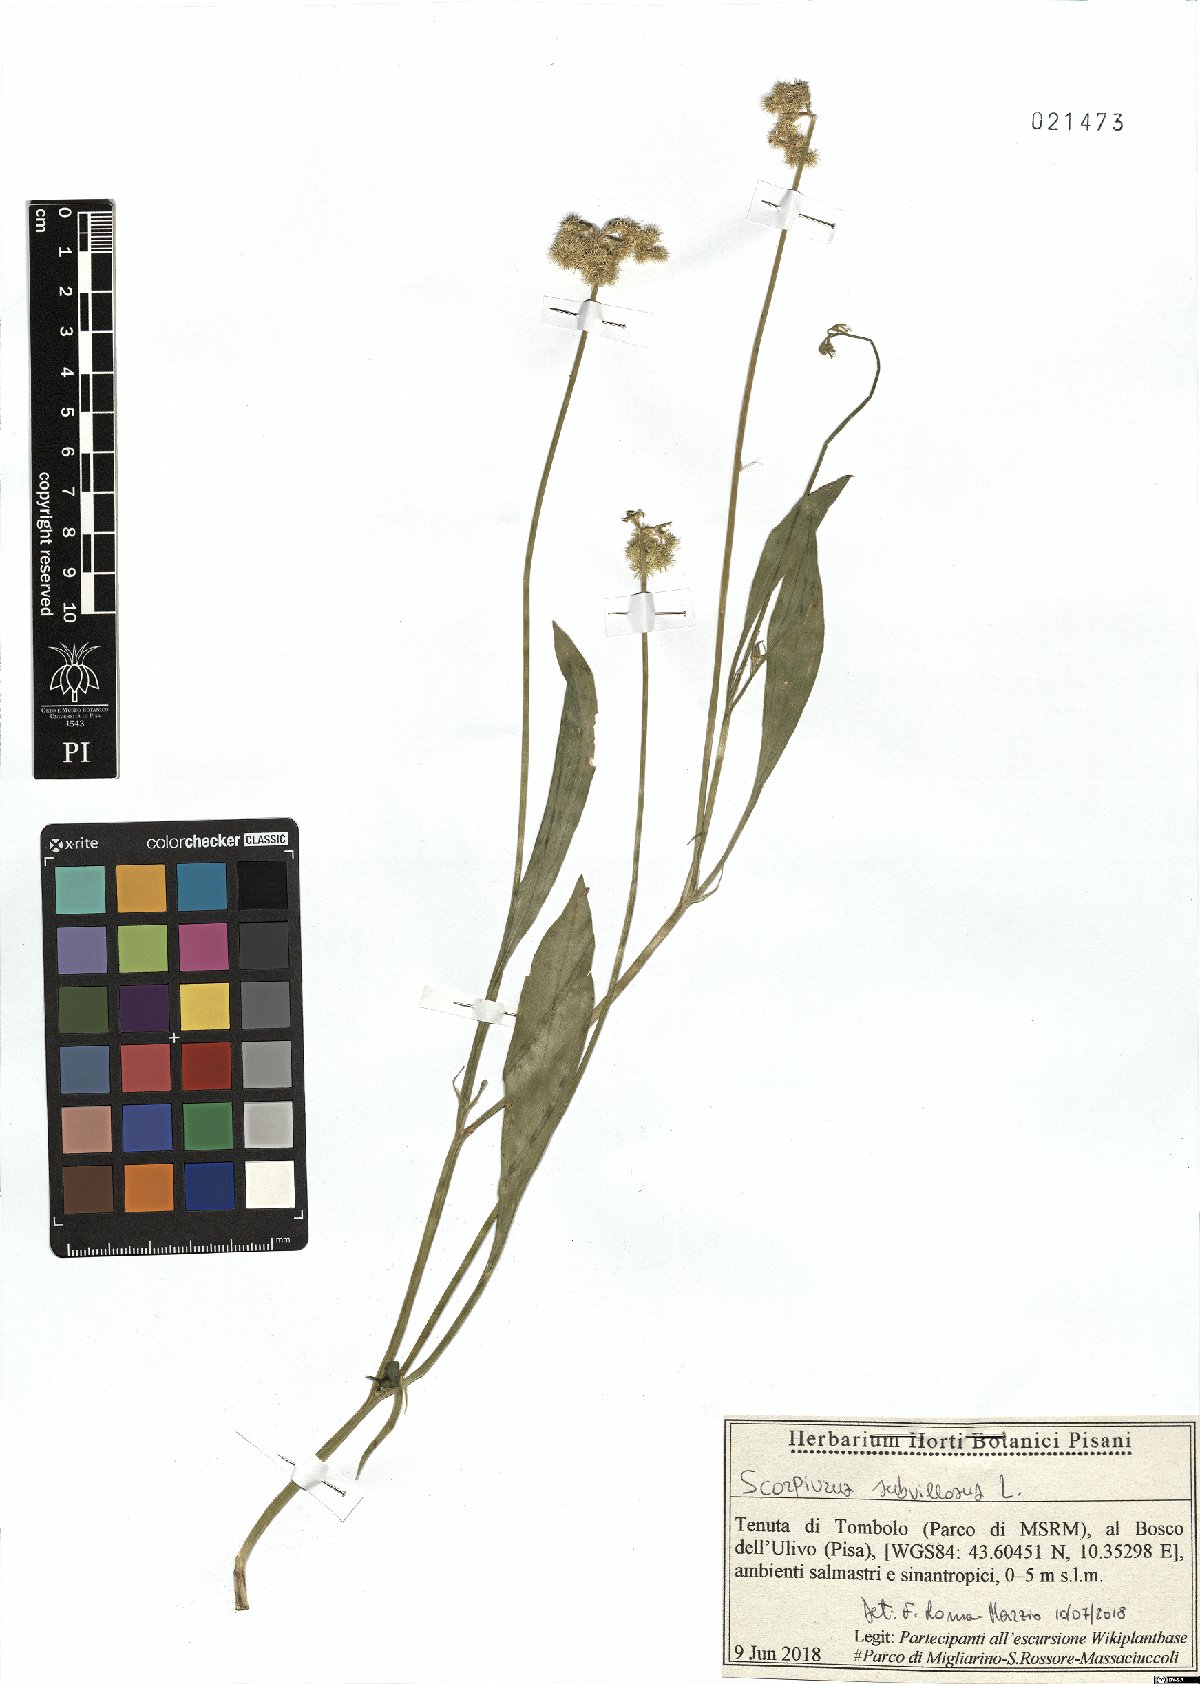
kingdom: Plantae
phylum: Tracheophyta
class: Magnoliopsida
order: Fabales
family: Fabaceae
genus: Scorpiurus
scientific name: Scorpiurus muricatus
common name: Caterpillar-plant
